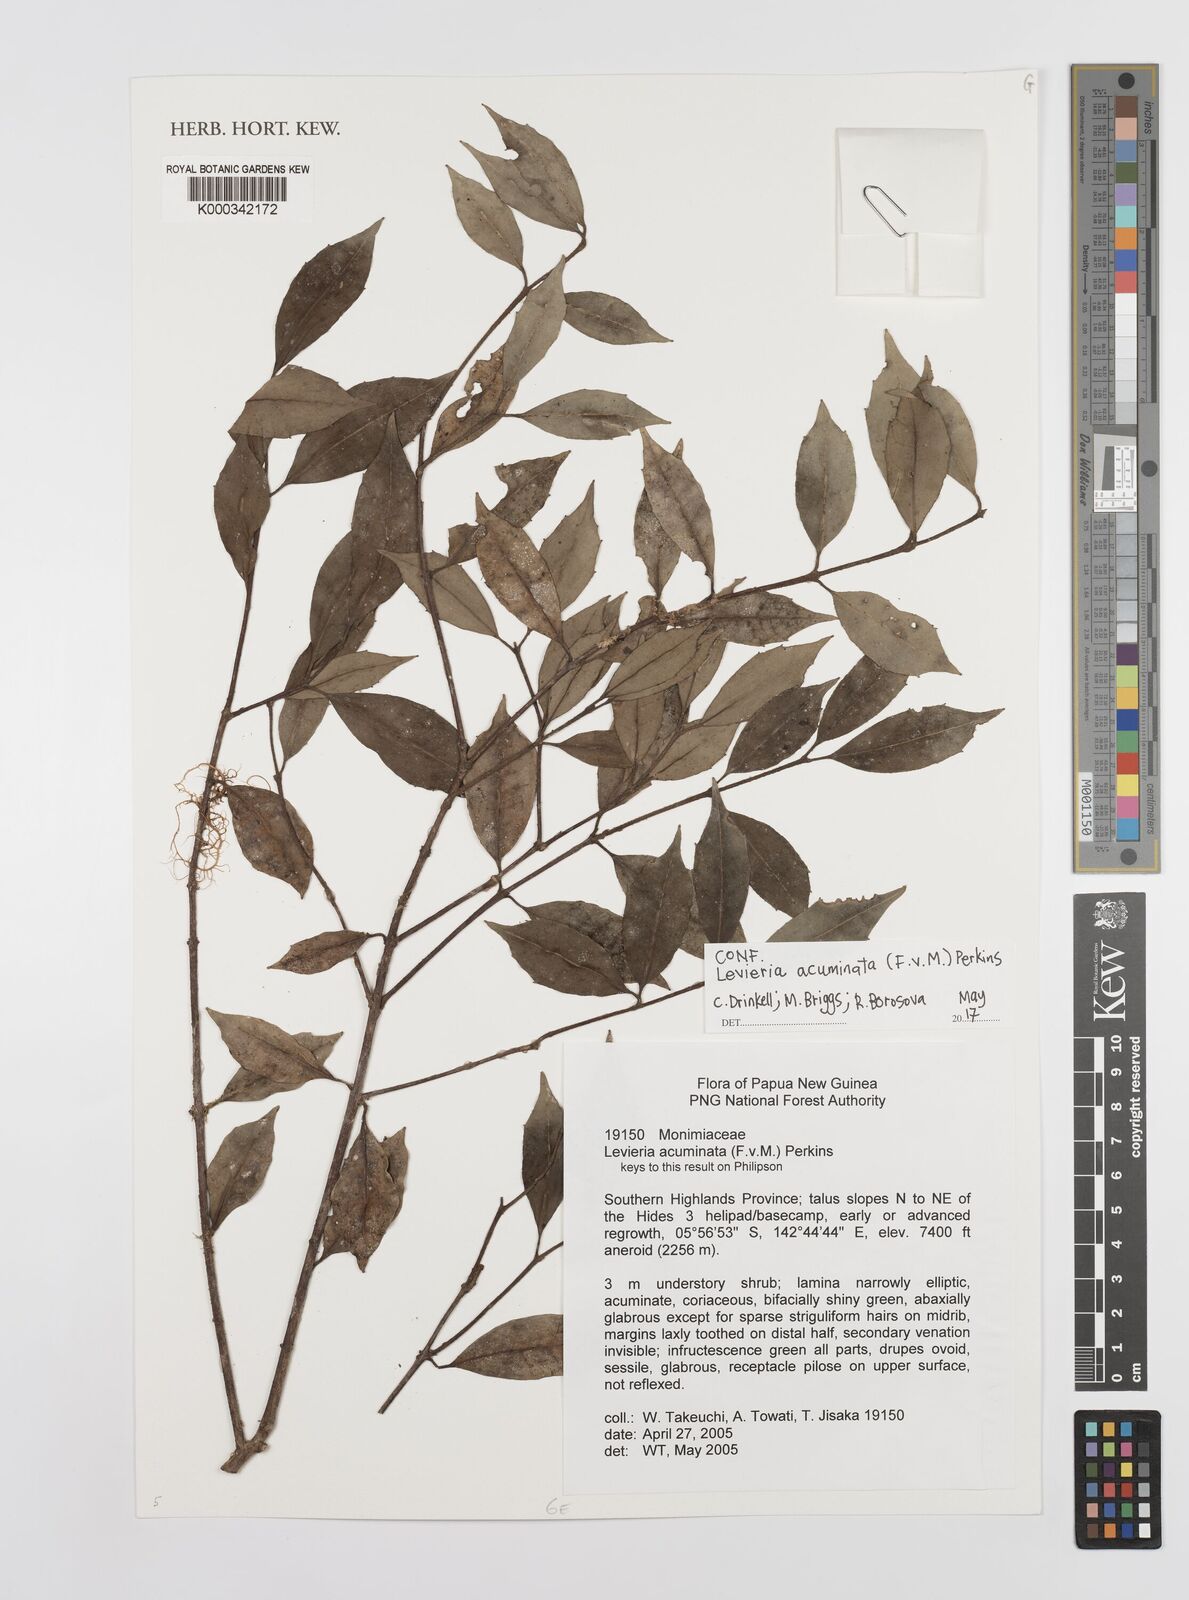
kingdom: Plantae
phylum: Tracheophyta
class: Magnoliopsida
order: Laurales
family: Monimiaceae
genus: Levieria
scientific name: Levieria acuminata
